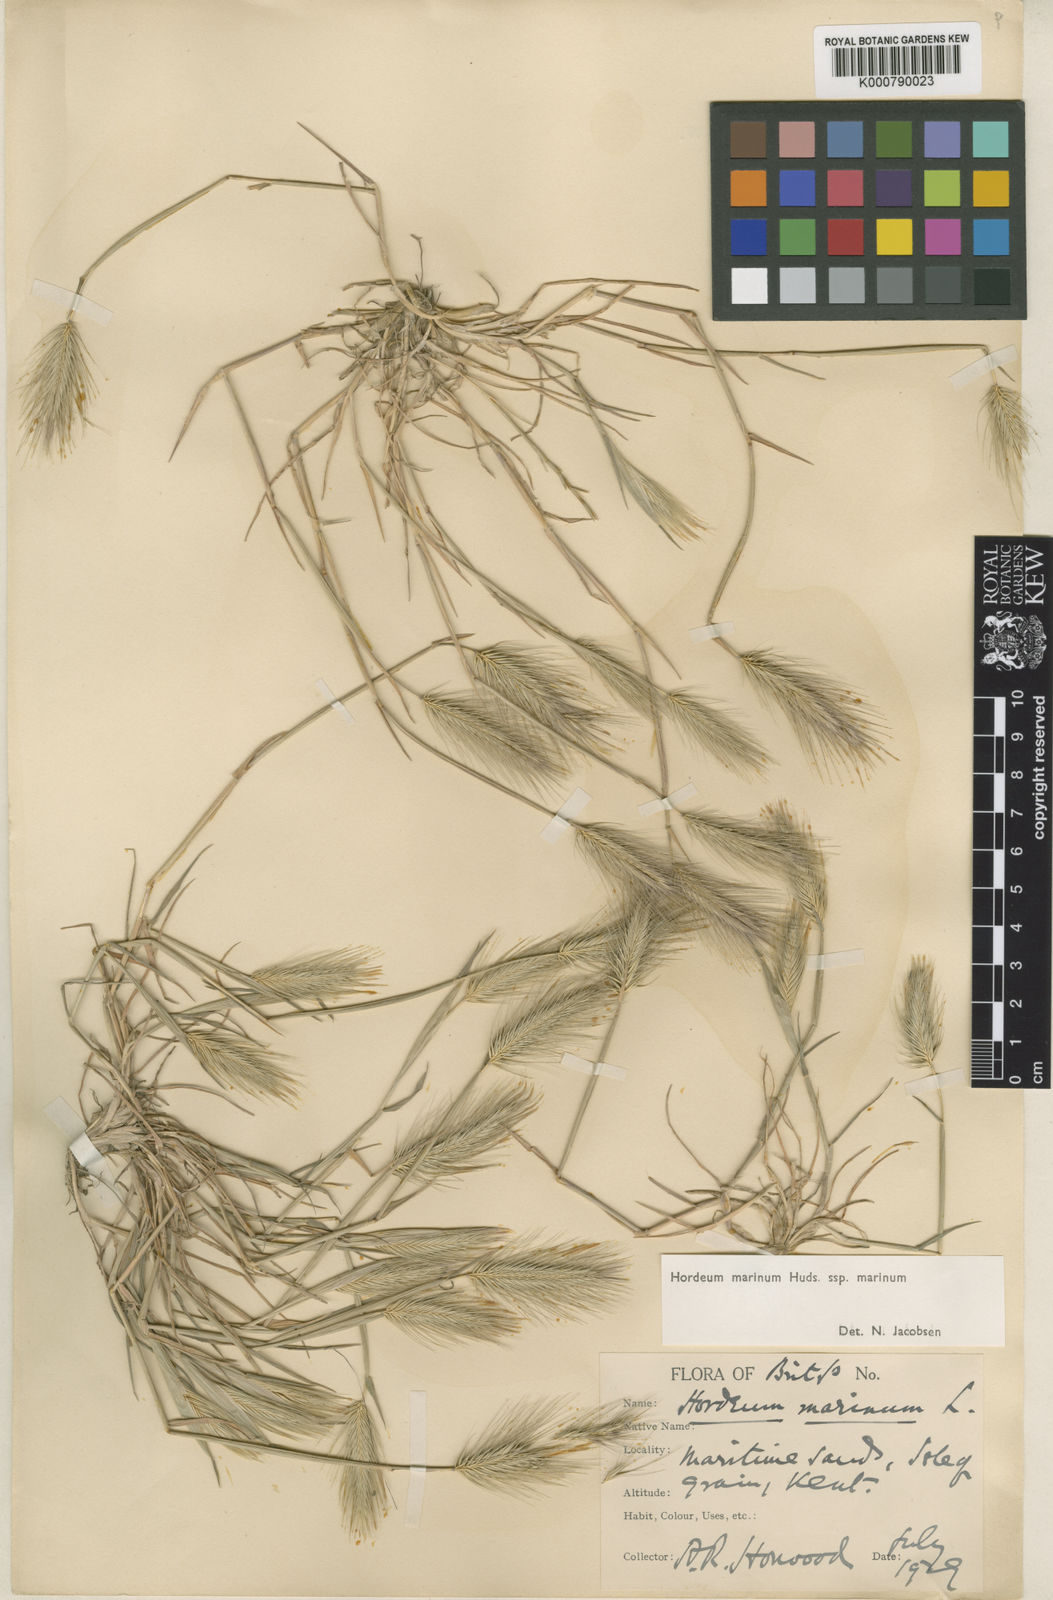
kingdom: Plantae
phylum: Tracheophyta
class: Liliopsida
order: Poales
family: Poaceae
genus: Hordeum
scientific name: Hordeum marinum
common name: Sea barley
